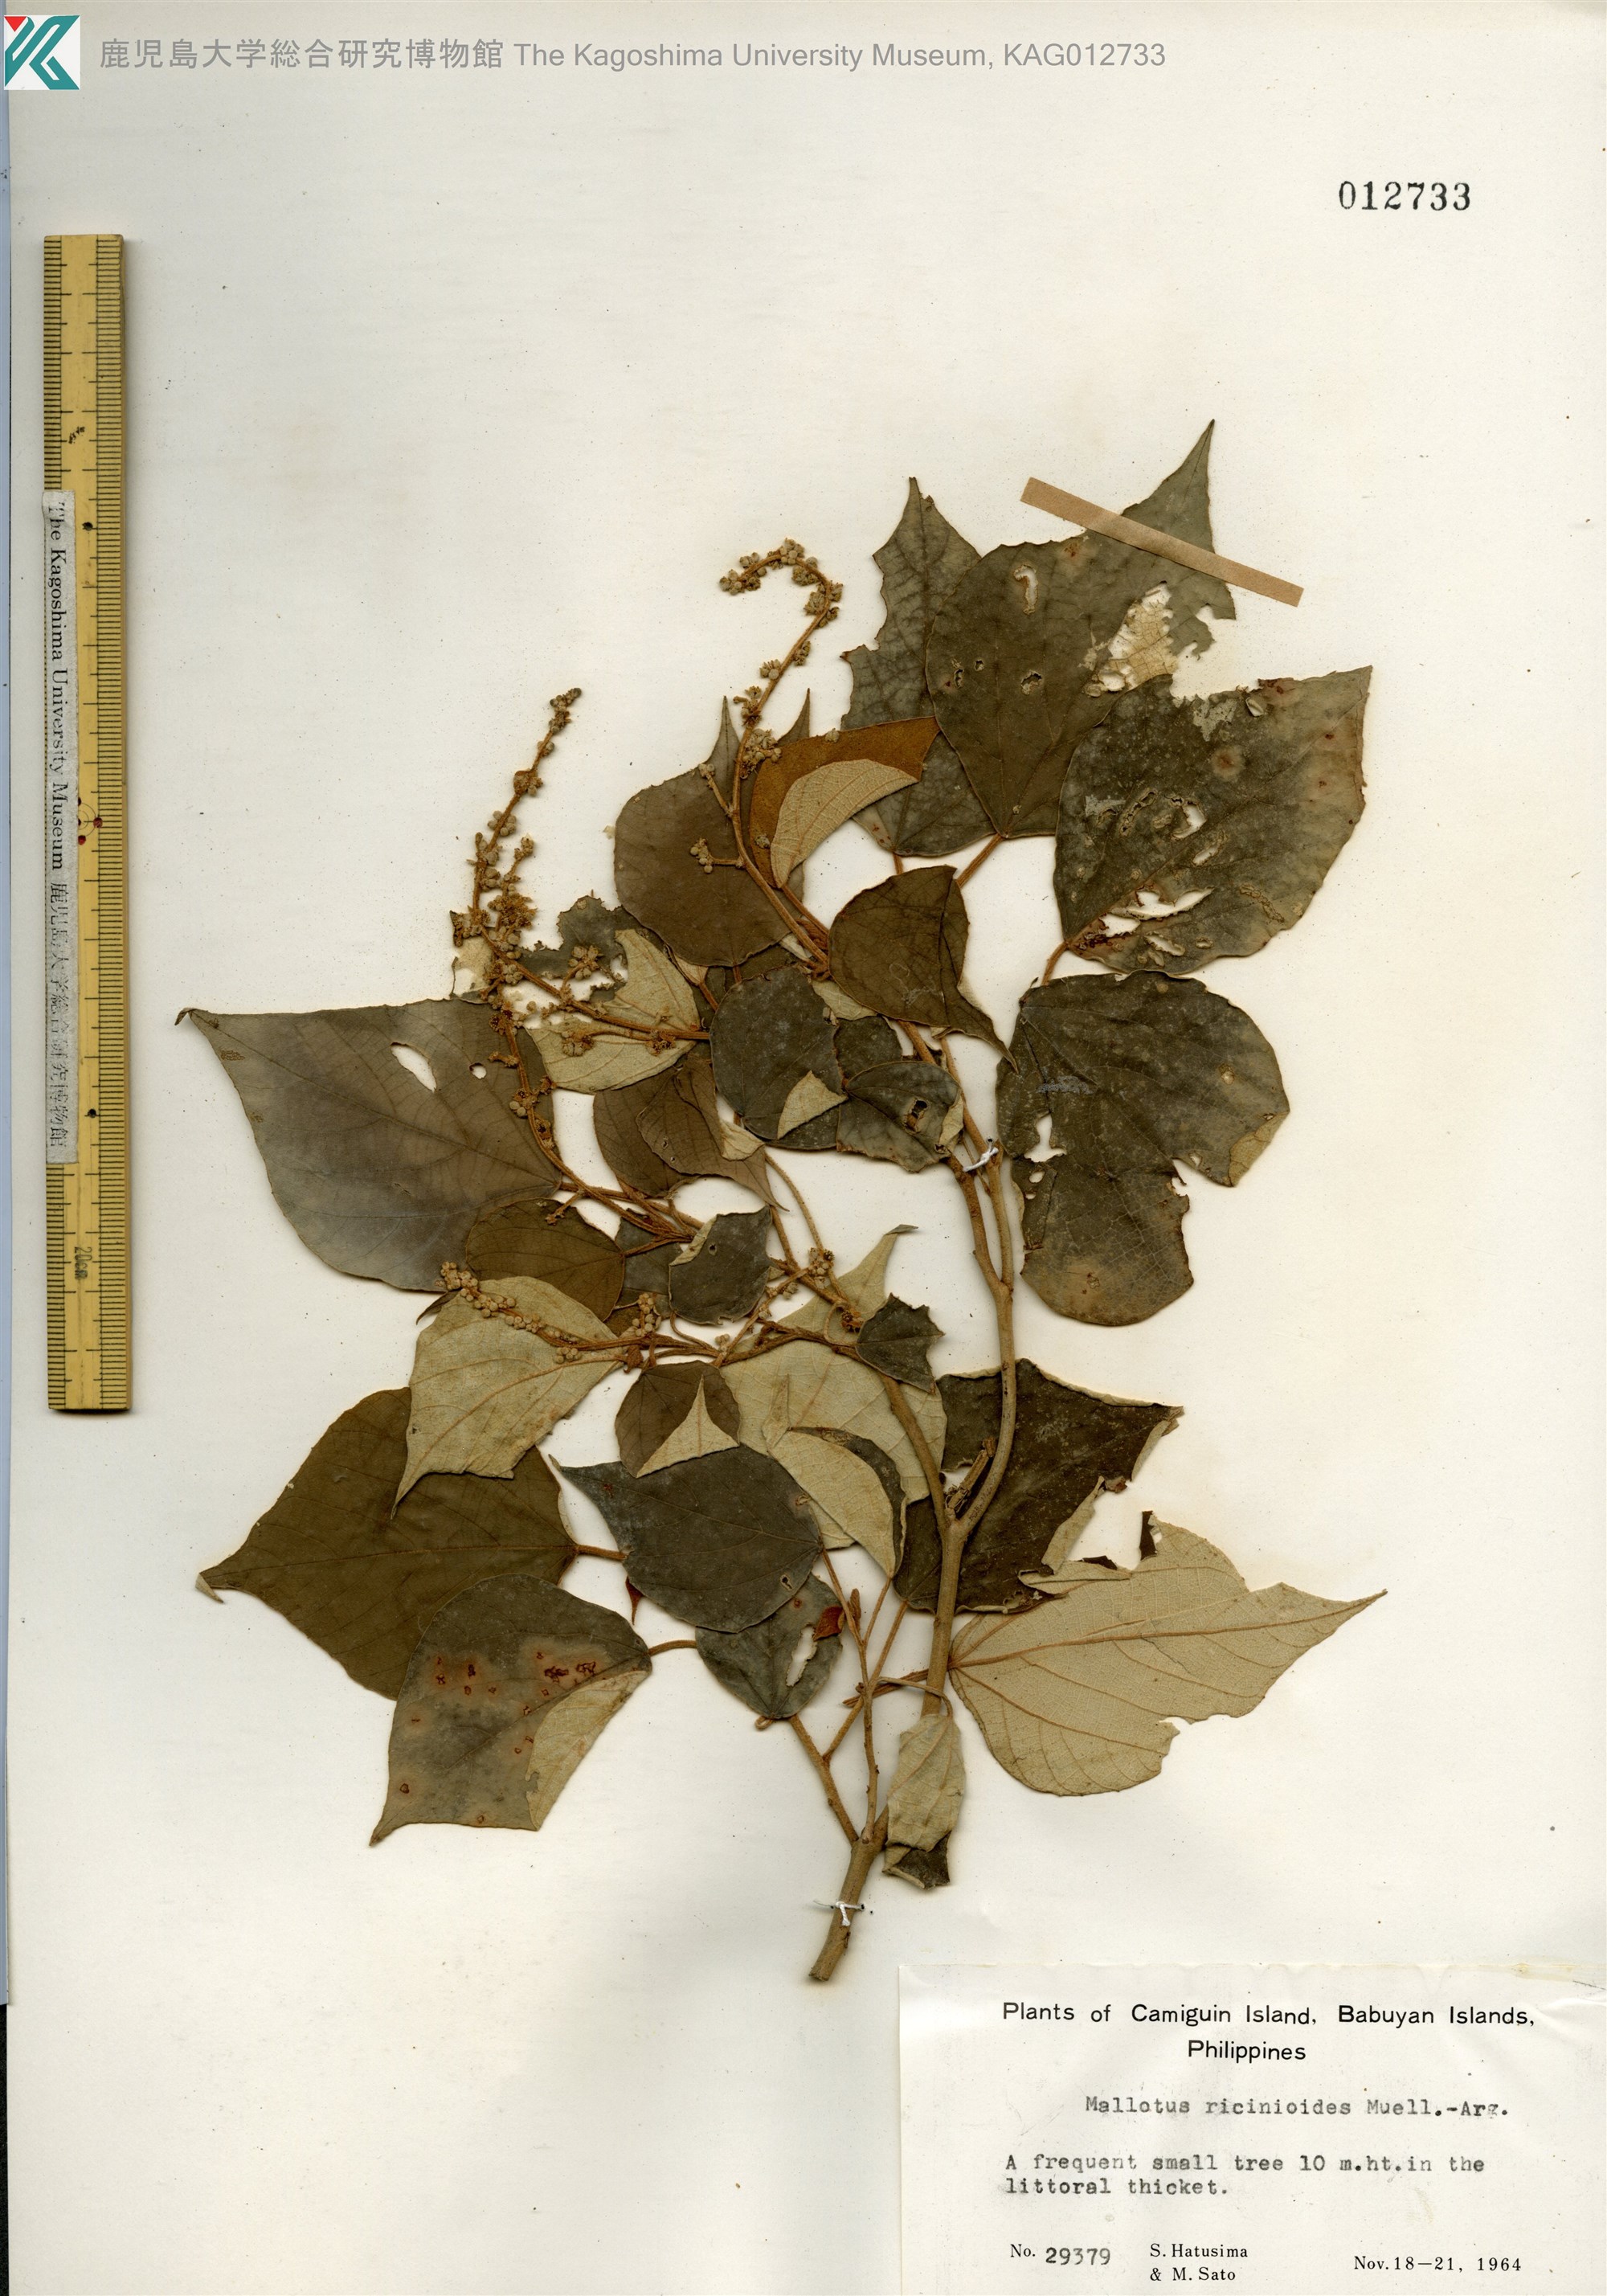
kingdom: Plantae
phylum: Tracheophyta
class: Magnoliopsida
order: Malpighiales
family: Euphorbiaceae
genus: Mallotus
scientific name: Mallotus mollissimus
